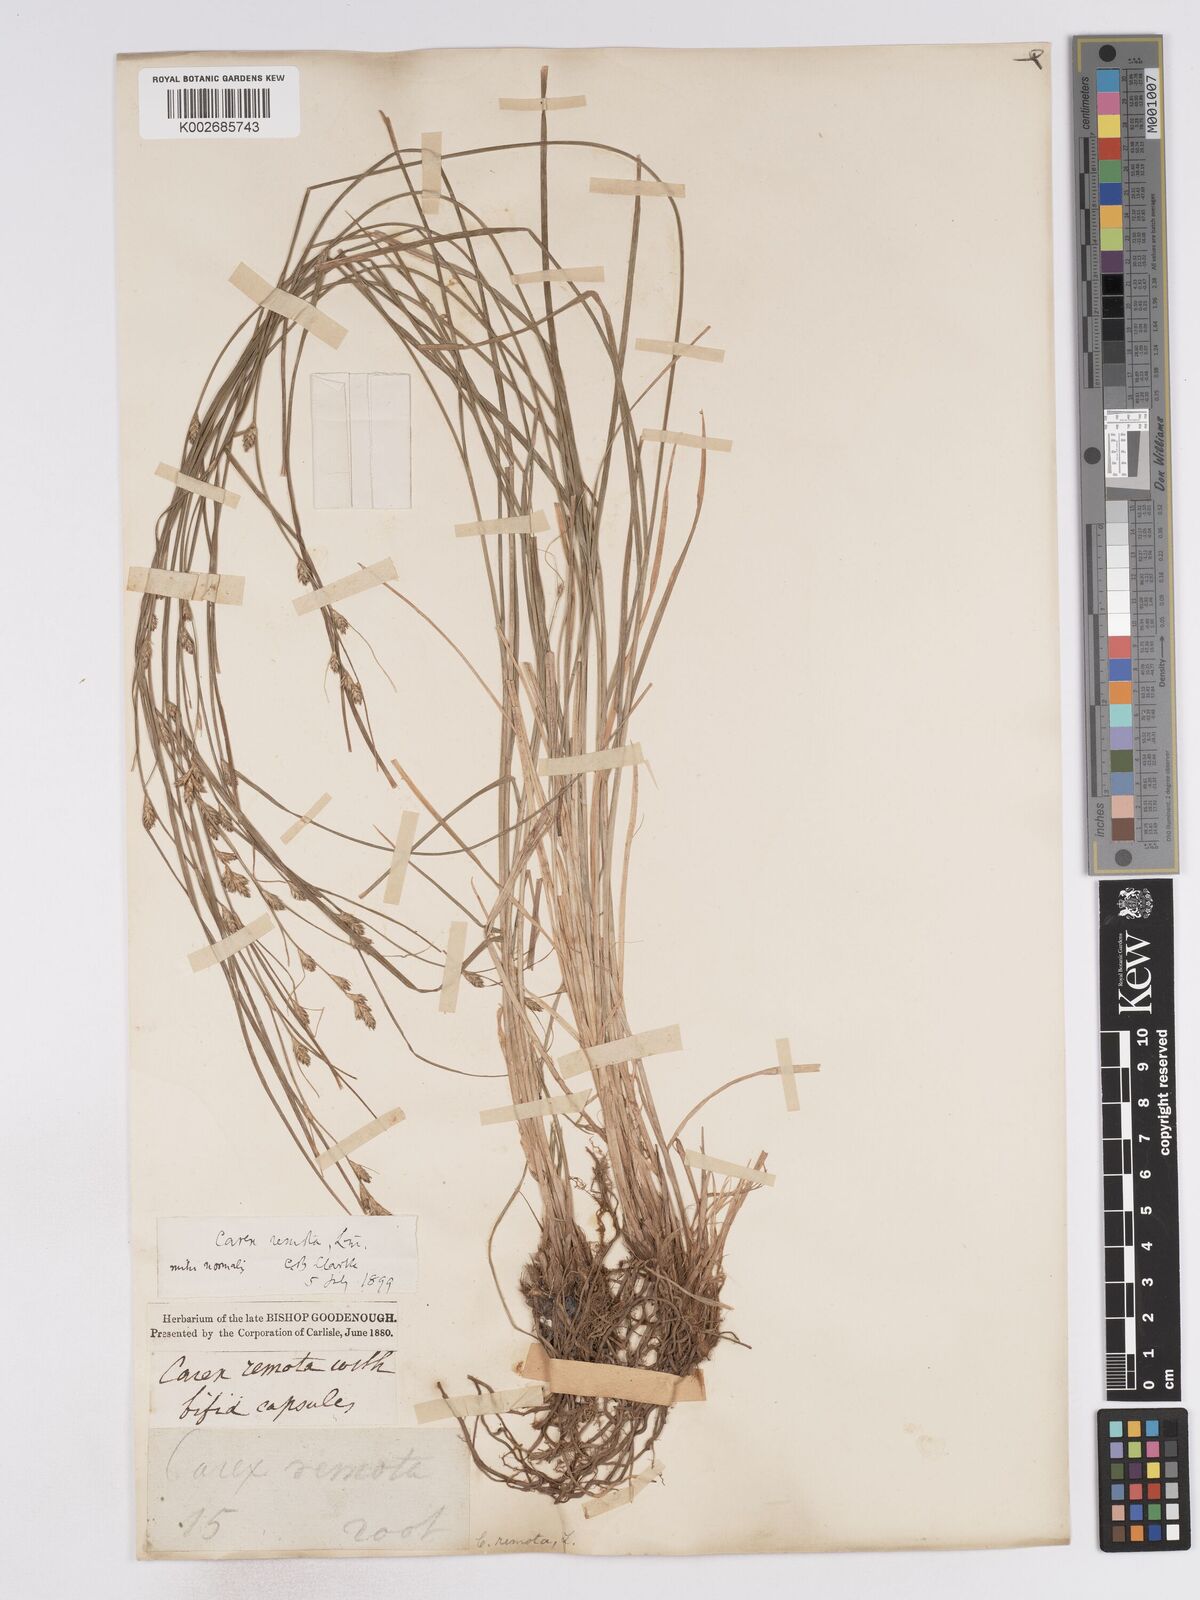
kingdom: Plantae
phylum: Tracheophyta
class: Liliopsida
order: Poales
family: Cyperaceae
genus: Carex
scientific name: Carex remota
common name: Remote sedge
